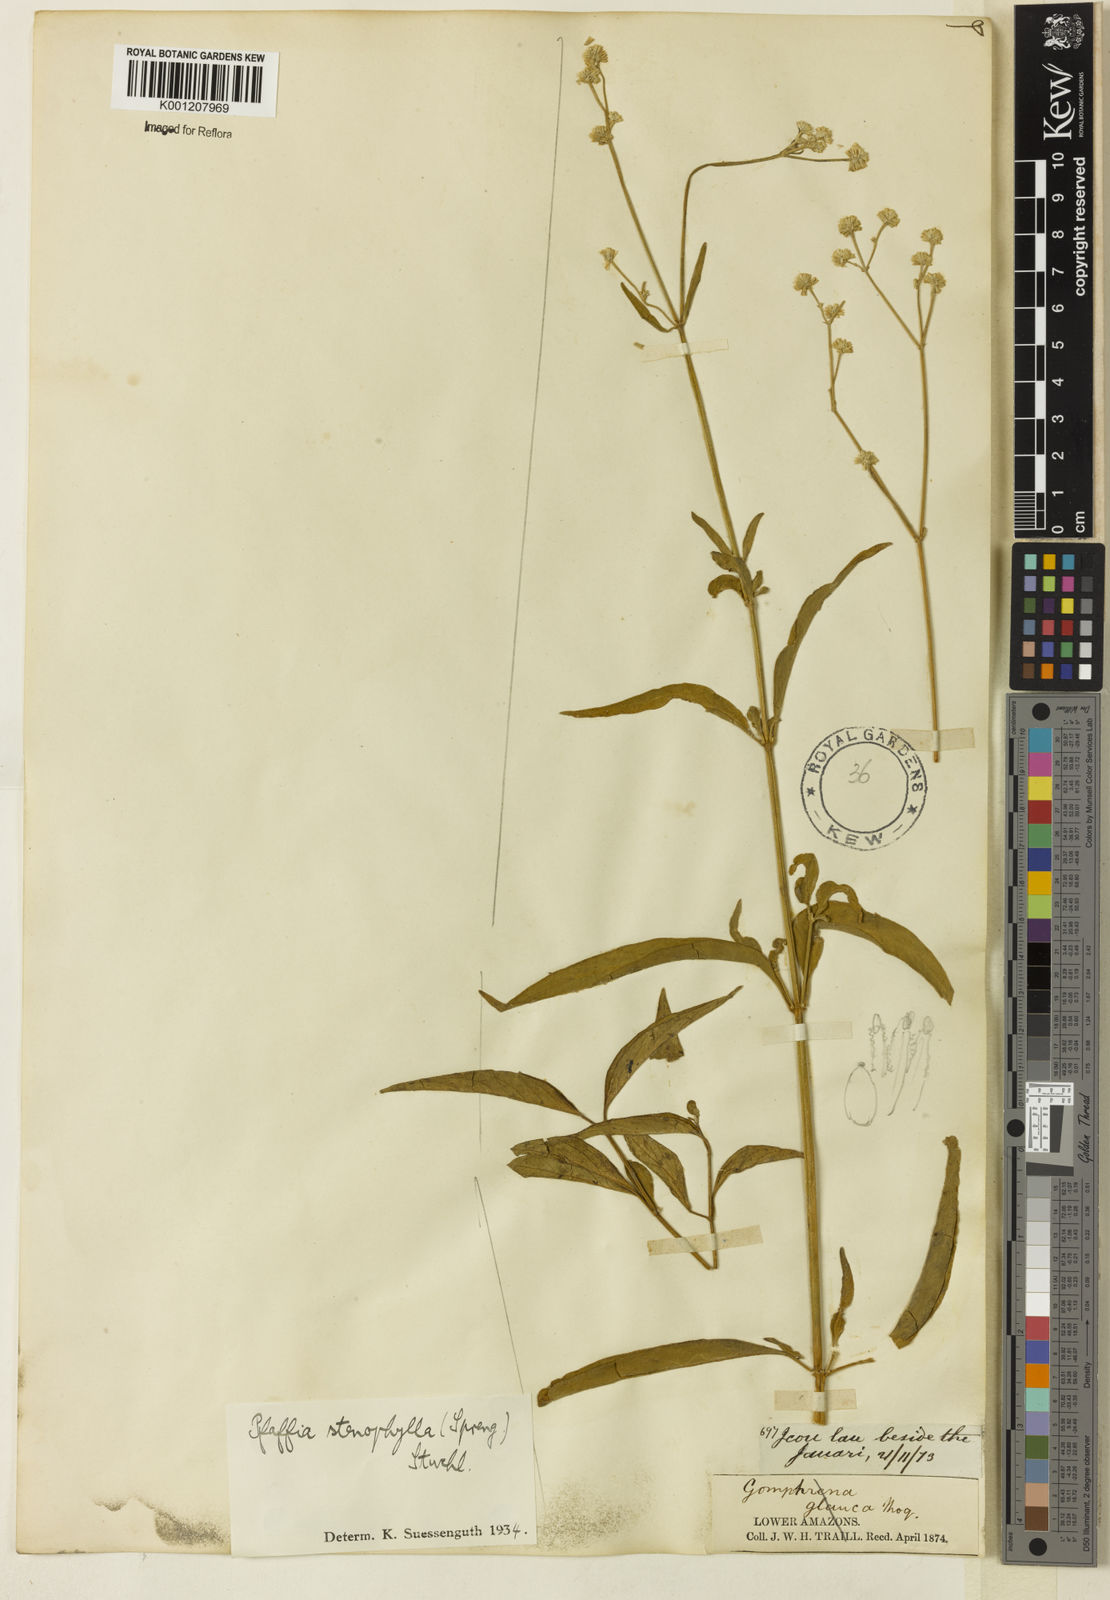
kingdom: Plantae
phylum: Tracheophyta
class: Magnoliopsida
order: Caryophyllales
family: Amaranthaceae
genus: Pfaffia
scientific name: Pfaffia
